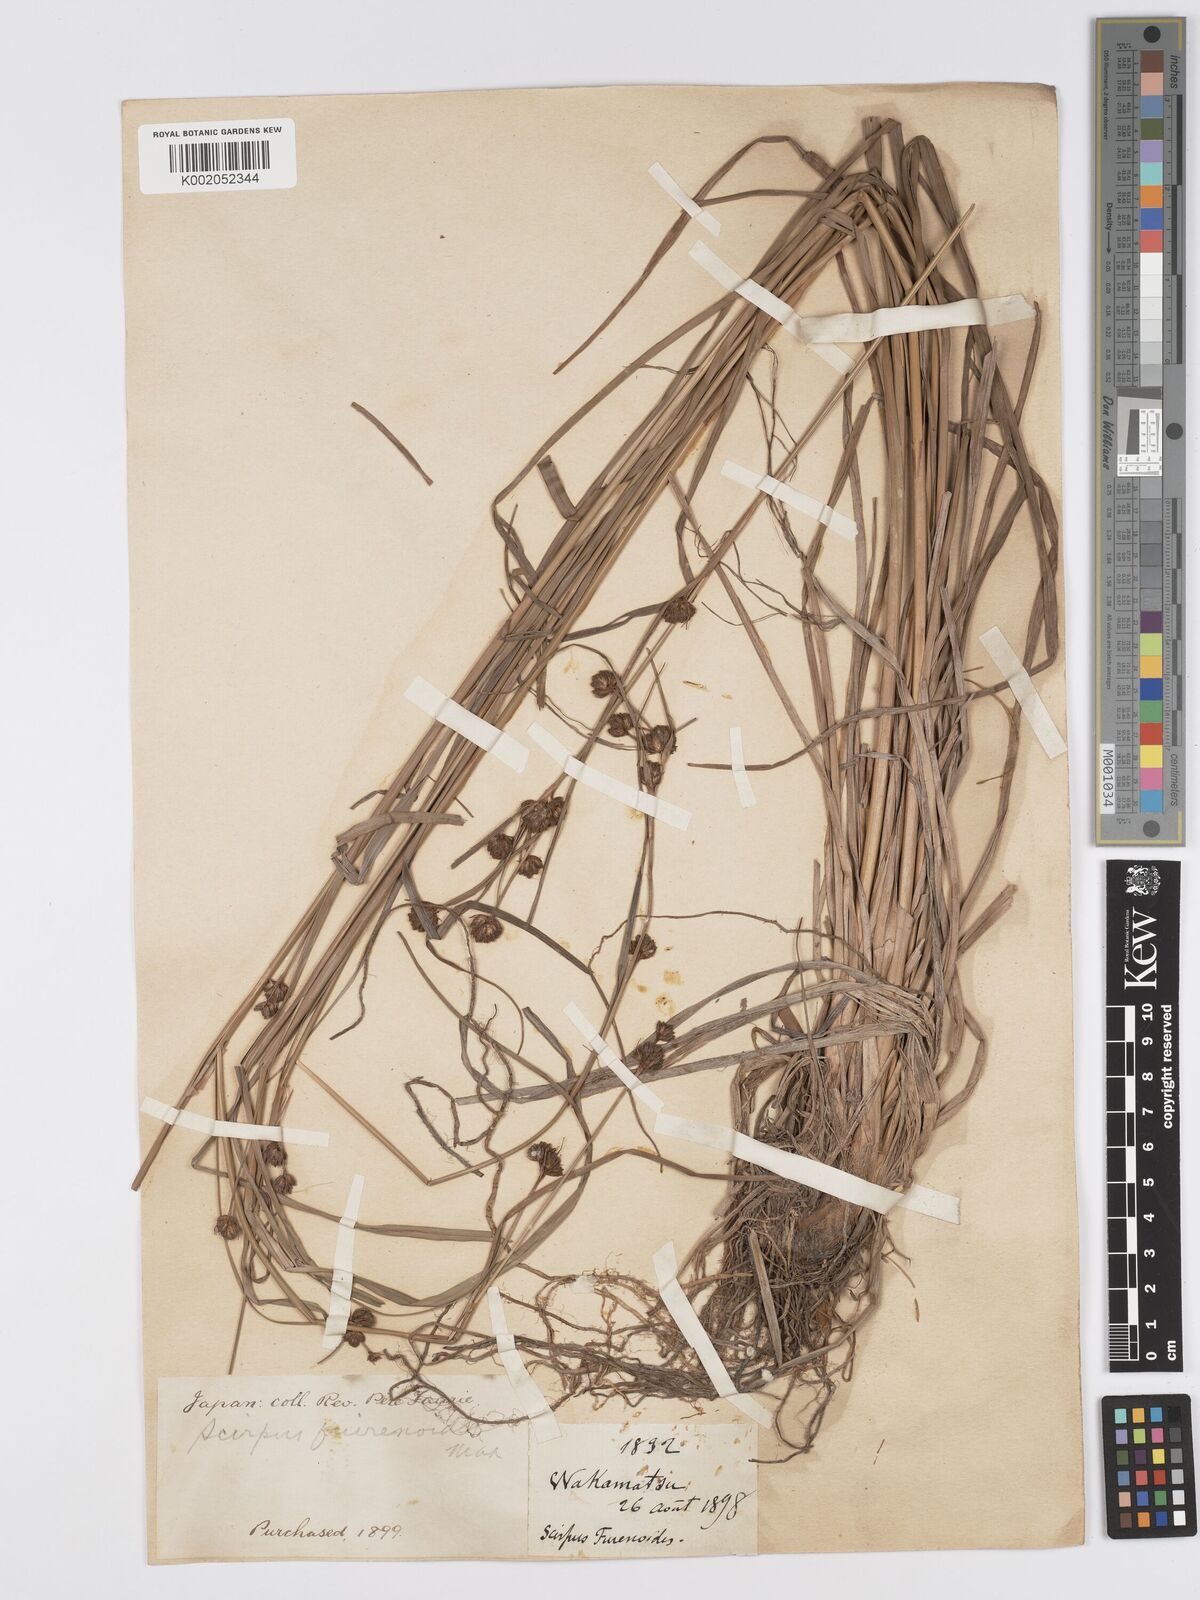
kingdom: Plantae
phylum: Tracheophyta
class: Liliopsida
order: Poales
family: Cyperaceae
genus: Scirpus
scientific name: Scirpus fuirenoides
